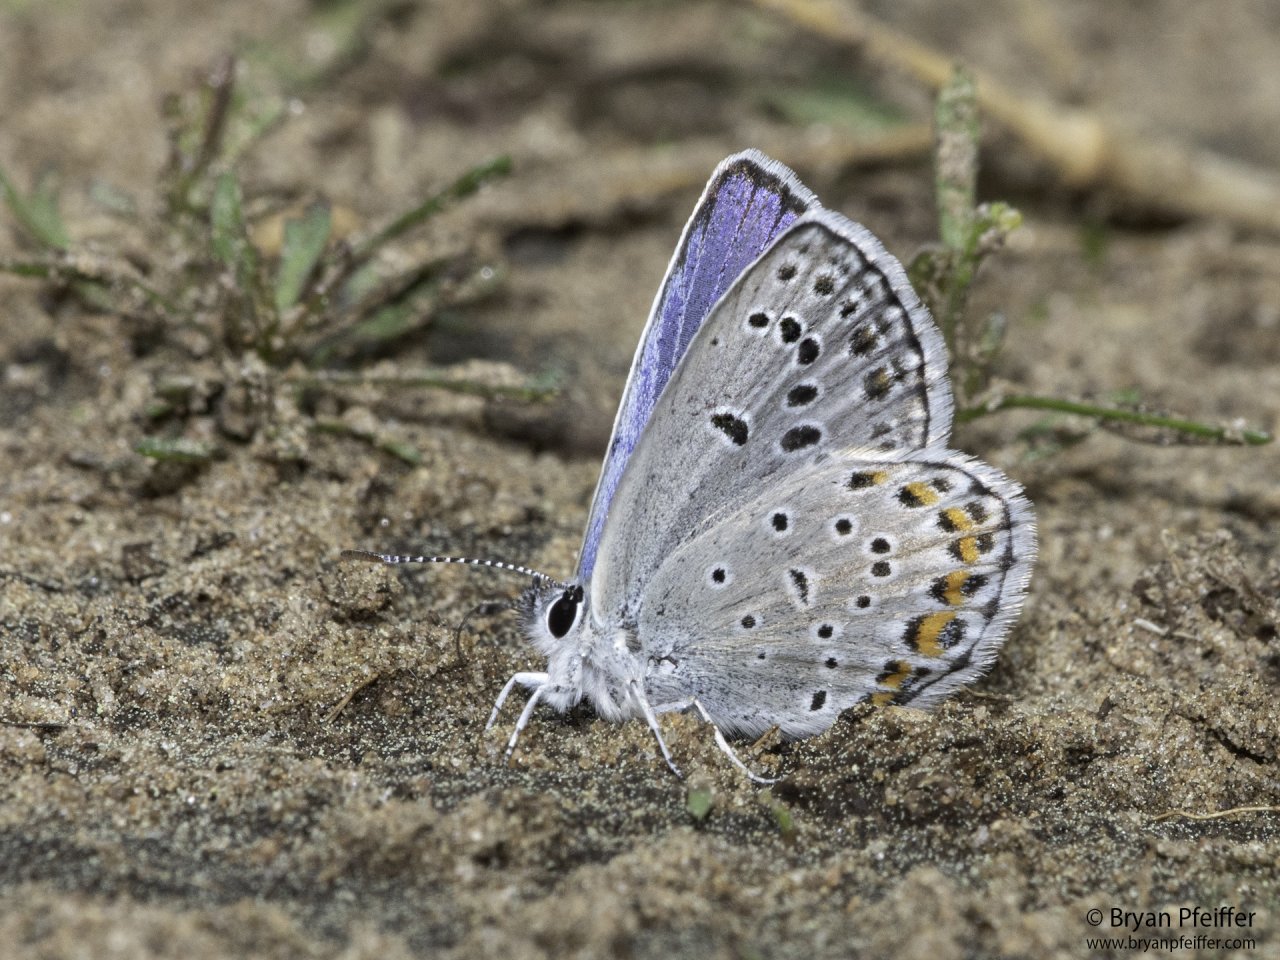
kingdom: Animalia
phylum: Arthropoda
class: Insecta
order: Lepidoptera
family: Lycaenidae
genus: Plebejus
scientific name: Plebejus samuelis
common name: Karner Blue
